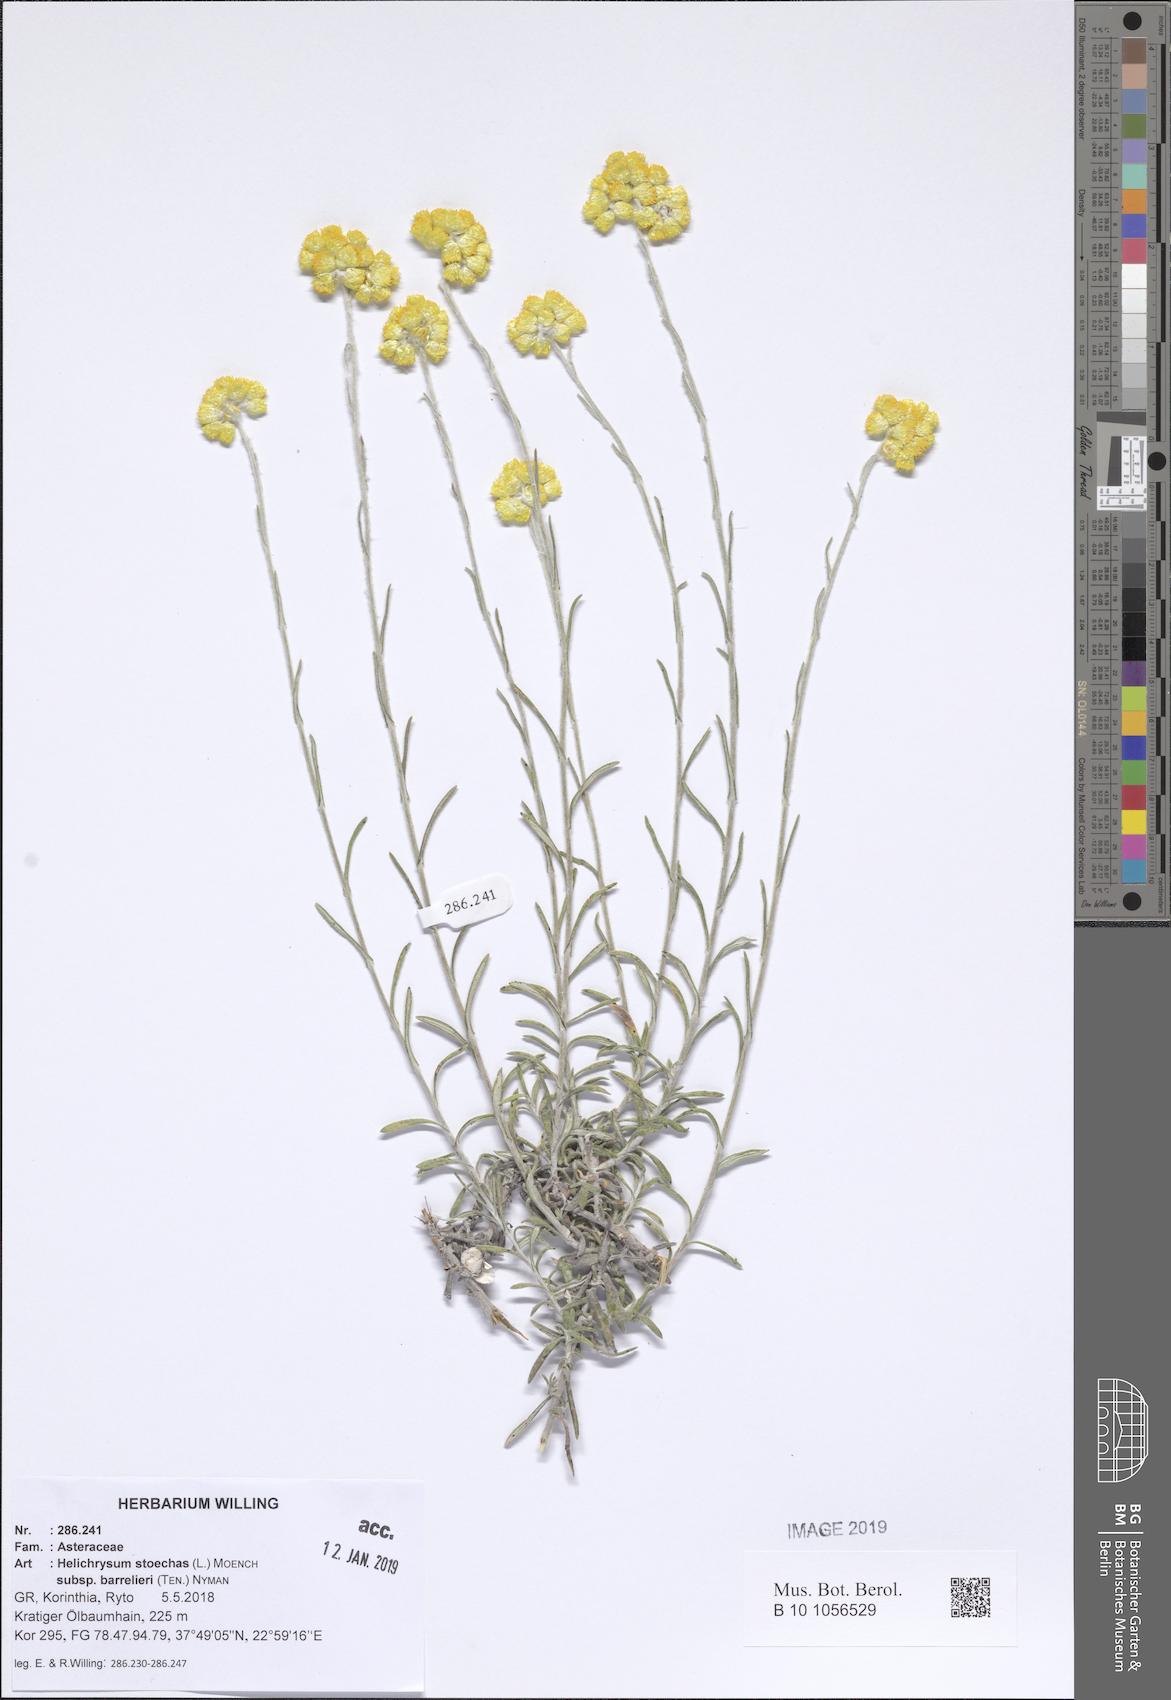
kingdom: Plantae
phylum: Tracheophyta
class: Magnoliopsida
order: Asterales
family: Asteraceae
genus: Helichrysum
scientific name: Helichrysum stoechas
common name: Goldilocks
